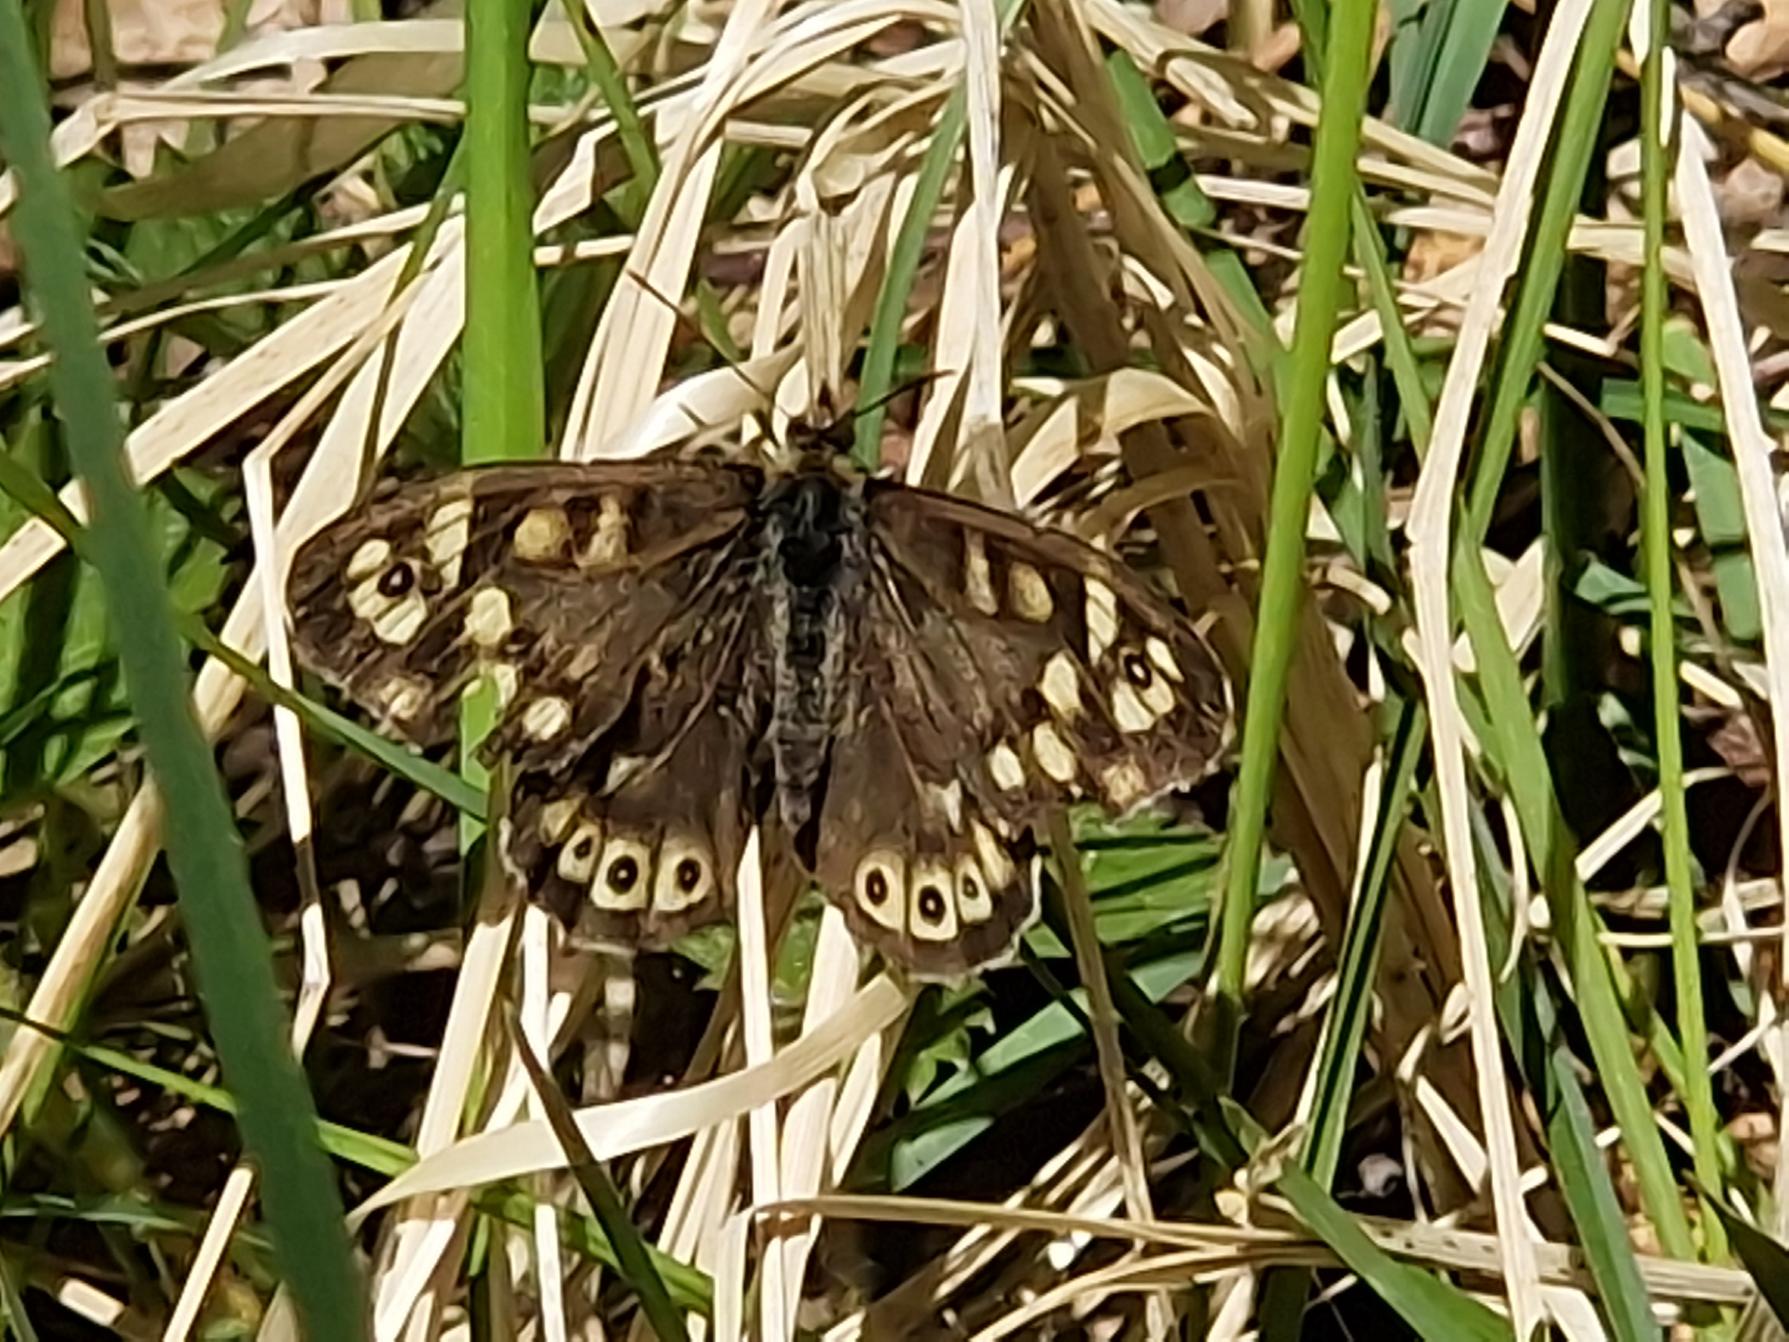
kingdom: Animalia
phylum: Arthropoda
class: Insecta
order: Lepidoptera
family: Nymphalidae
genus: Pararge
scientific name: Pararge aegeria
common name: Skovrandøje
